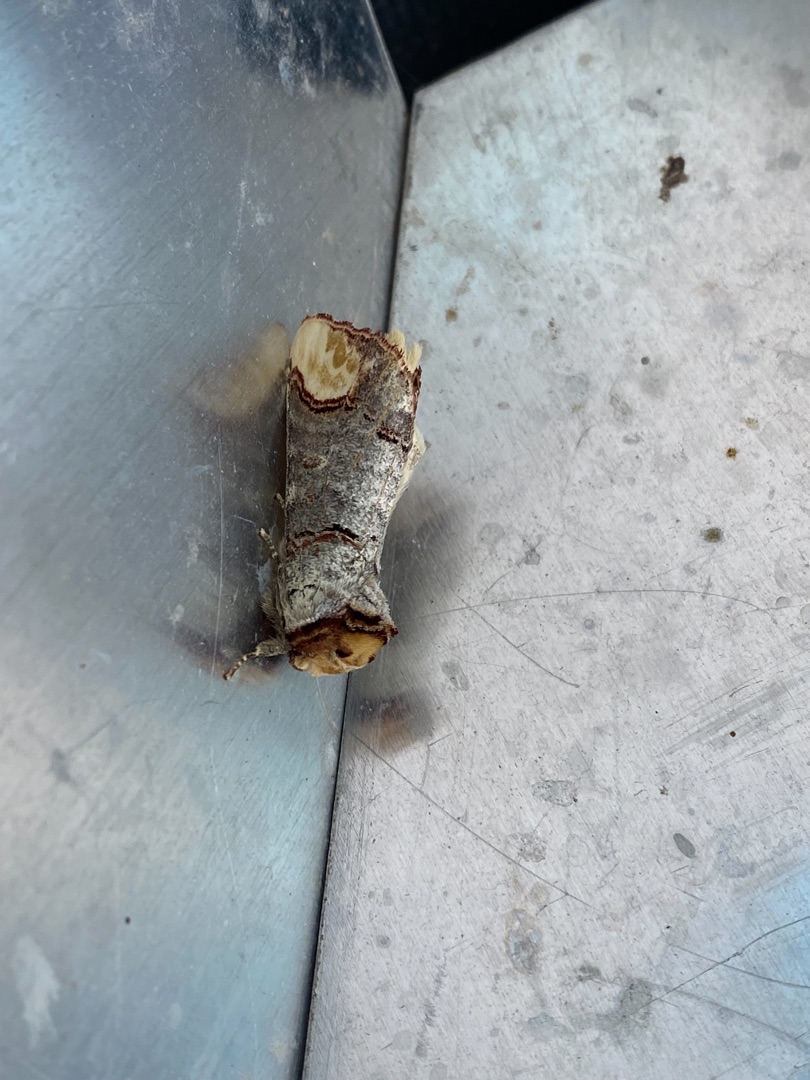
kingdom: Animalia
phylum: Arthropoda
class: Insecta
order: Lepidoptera
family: Notodontidae
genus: Phalera
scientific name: Phalera bucephala
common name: Måneplet
